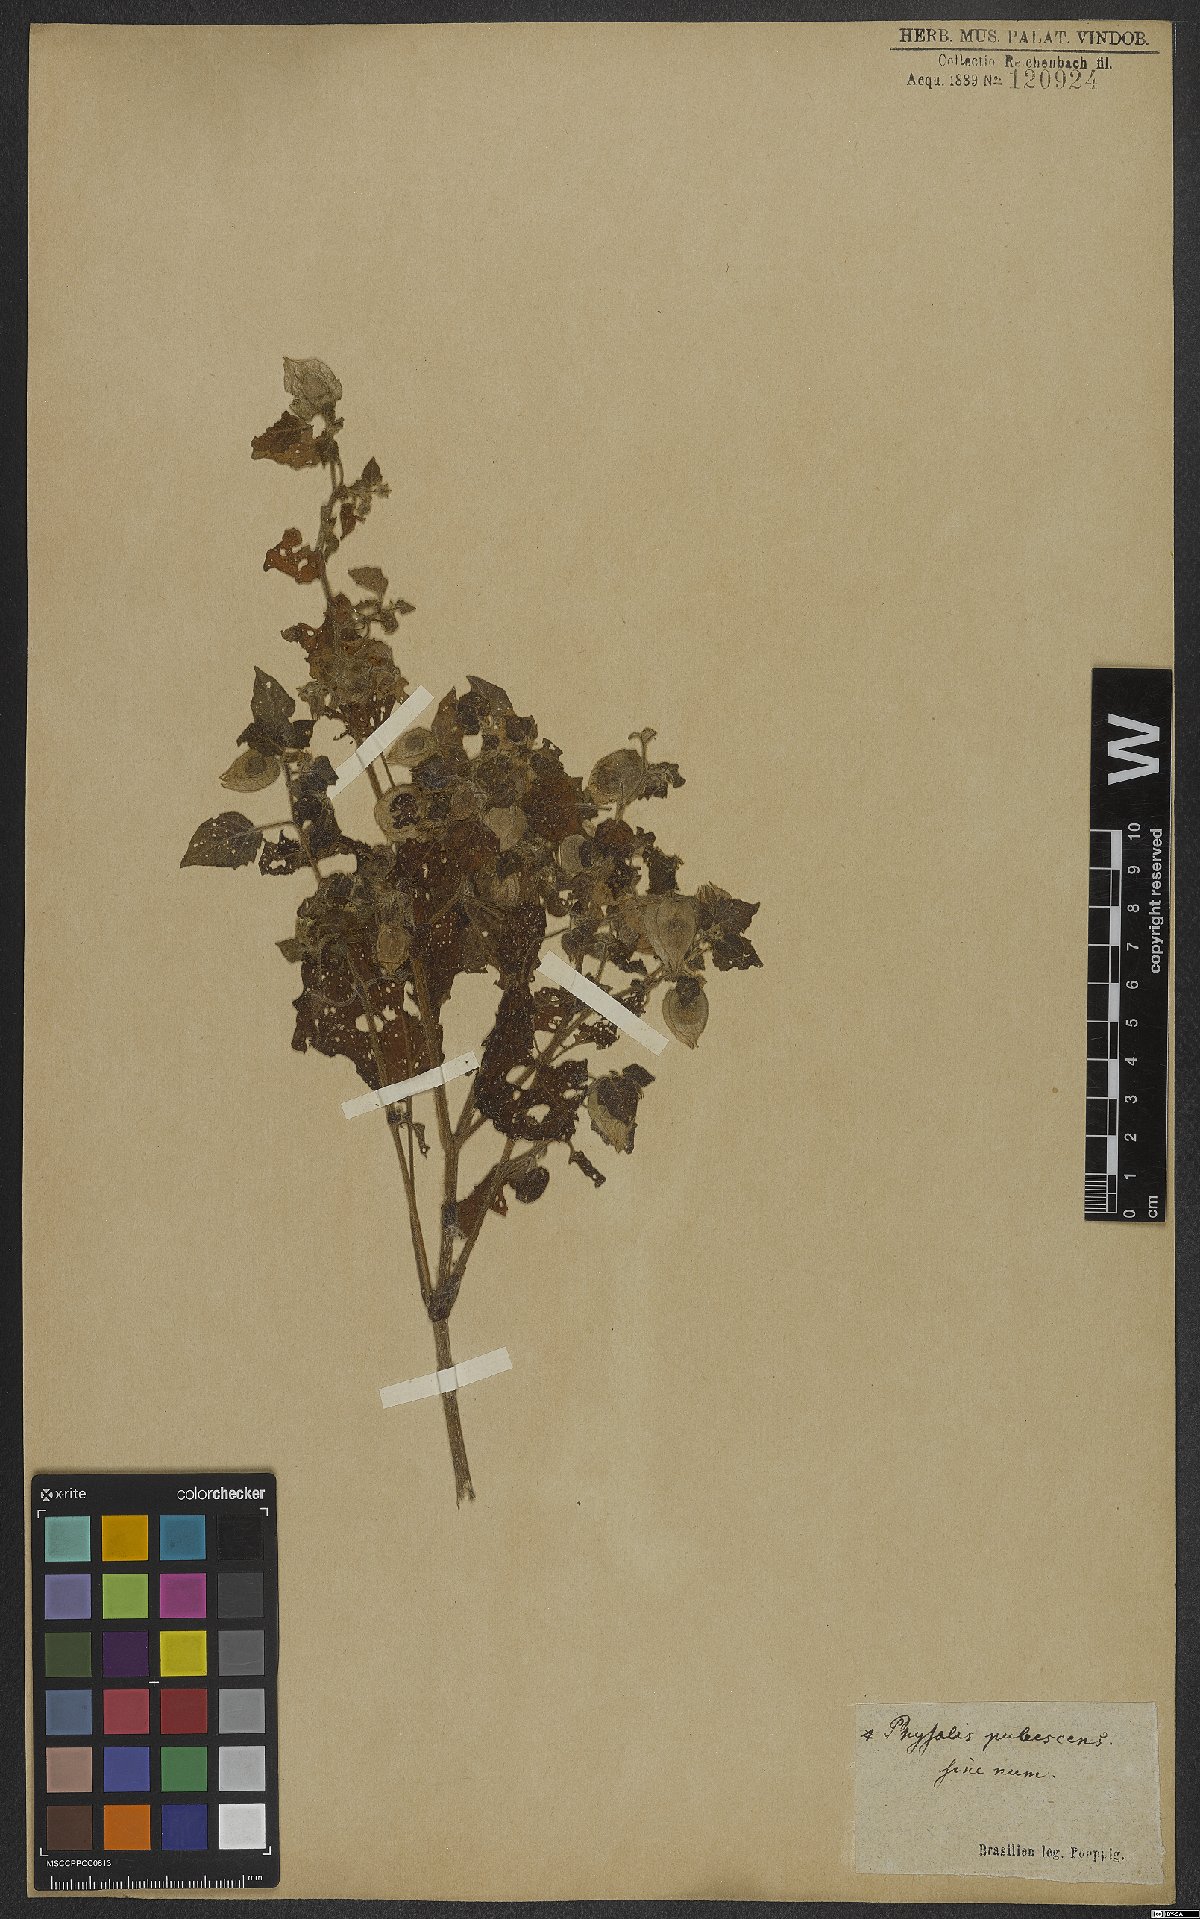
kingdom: Plantae
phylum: Tracheophyta
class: Magnoliopsida
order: Solanales
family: Solanaceae
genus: Physalis
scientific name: Physalis pubescens
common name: Downy ground-cherry
